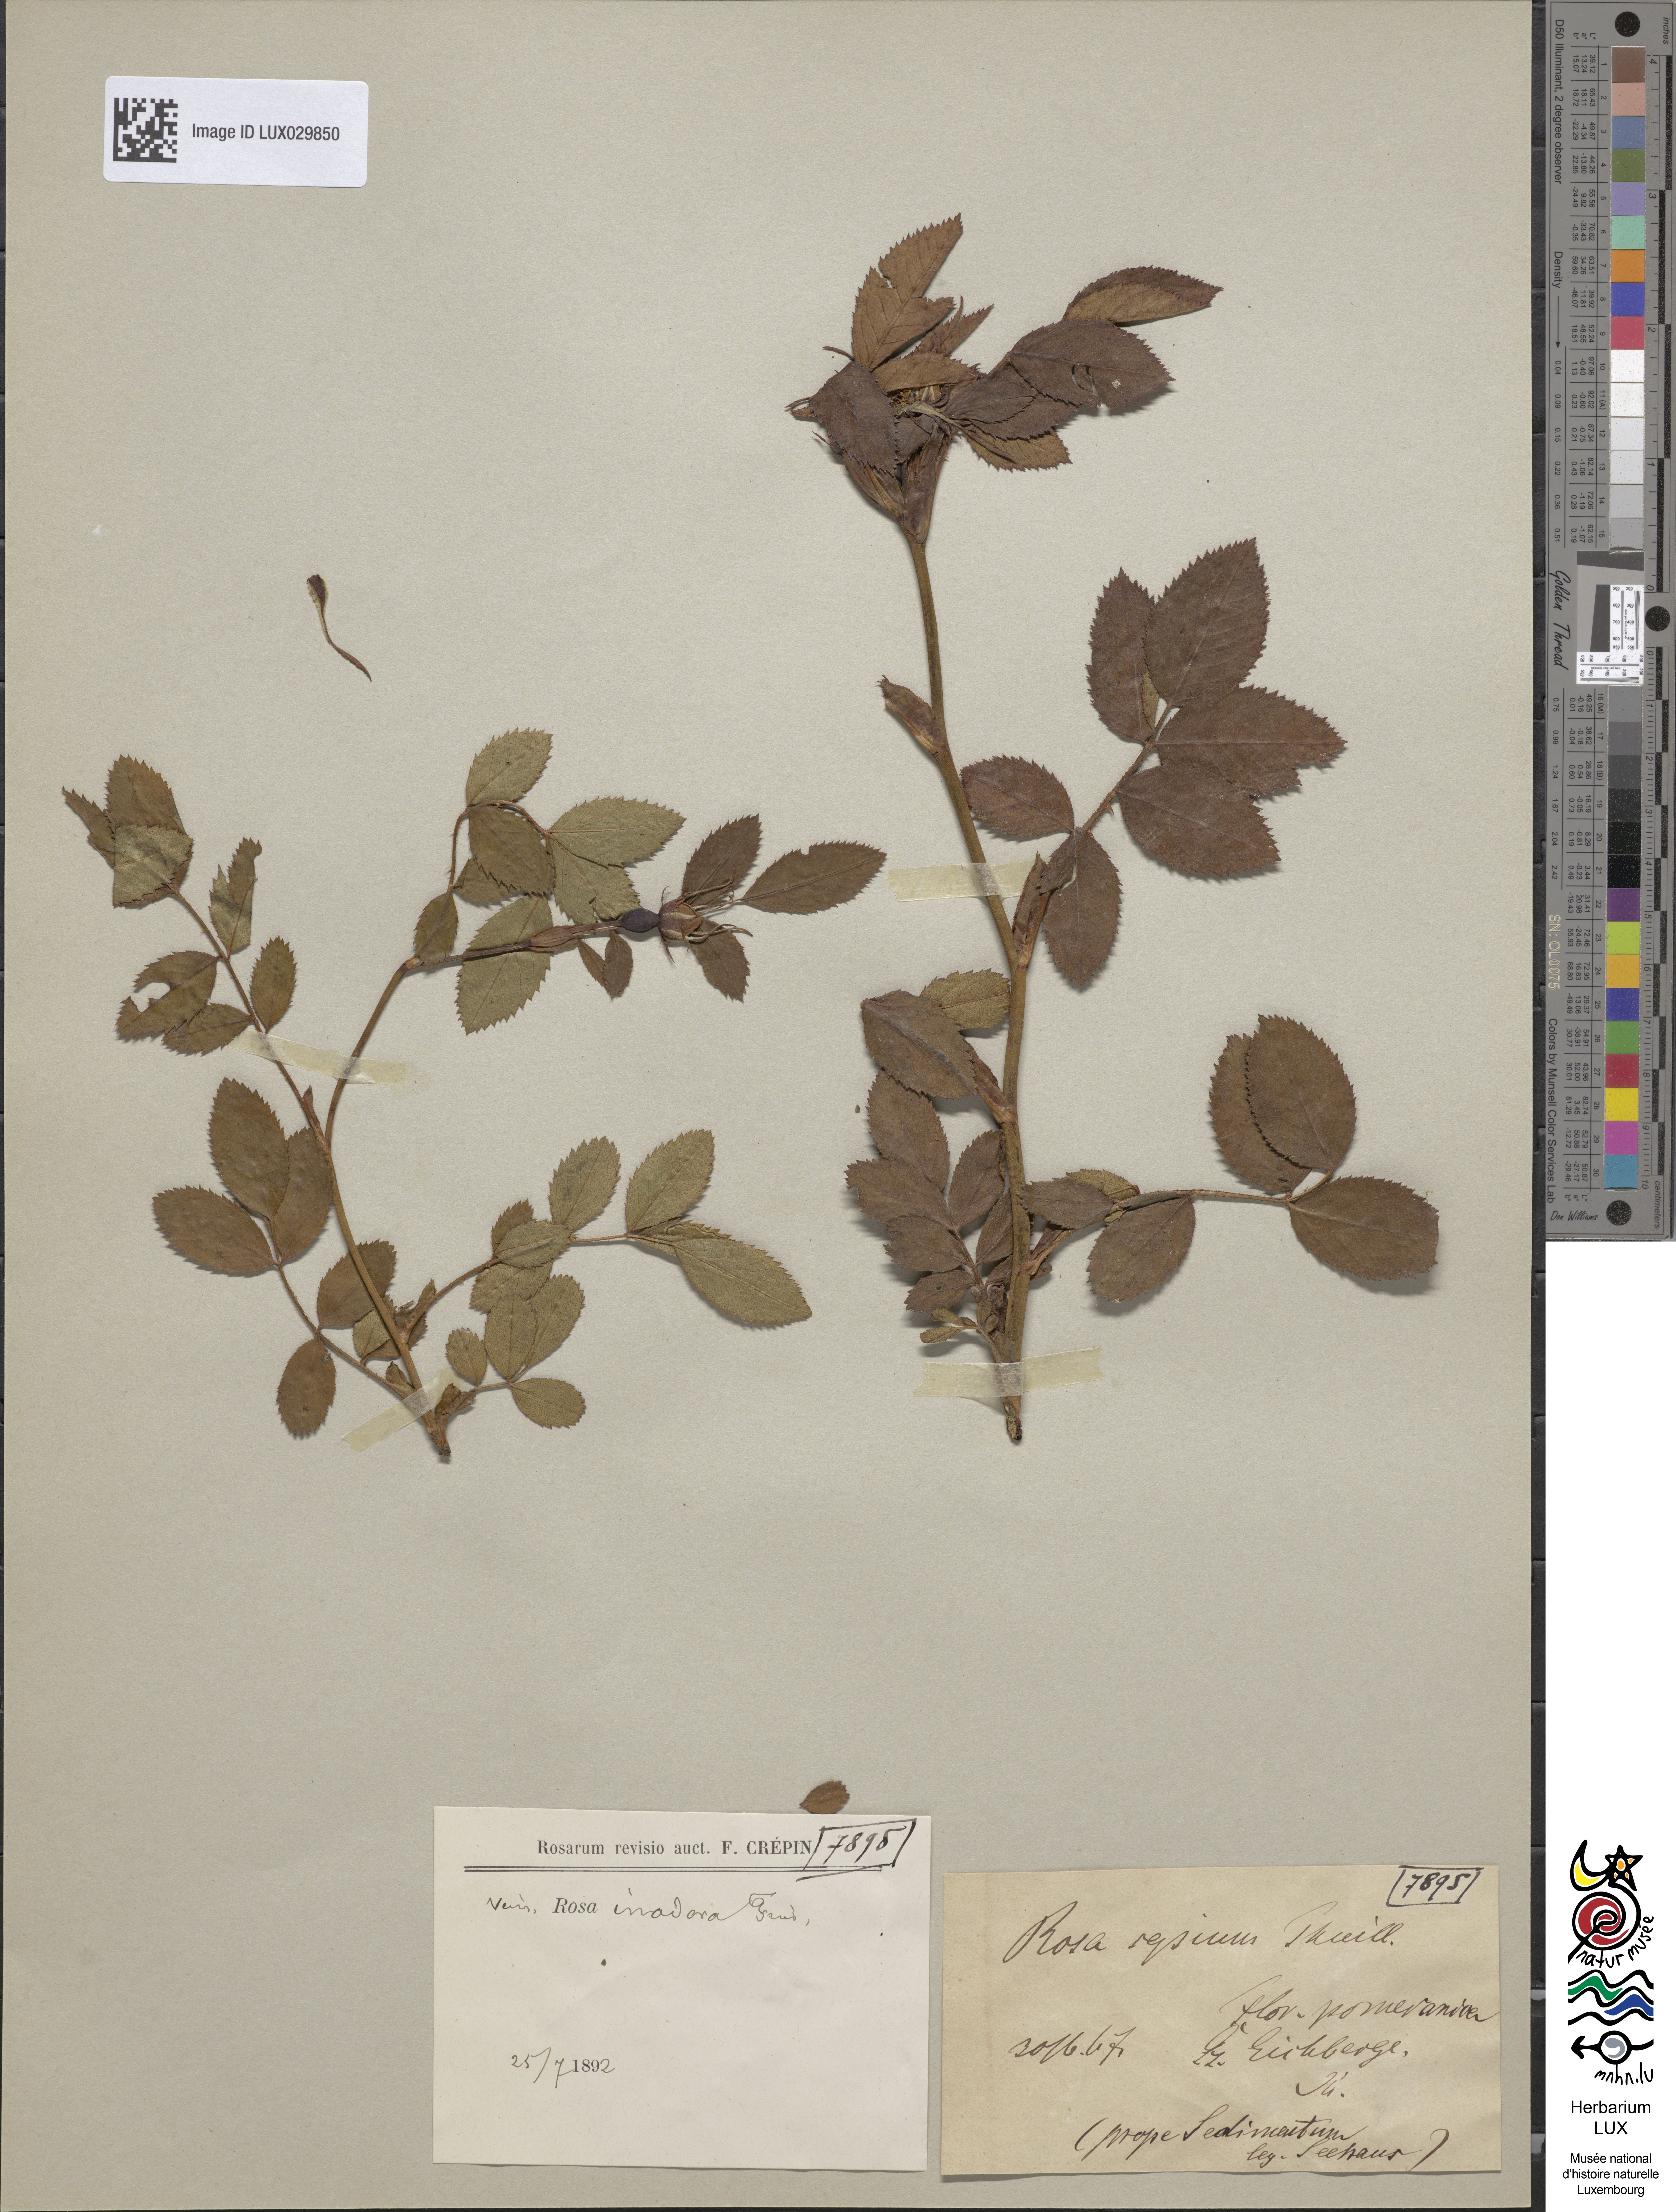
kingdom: Plantae
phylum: Tracheophyta
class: Magnoliopsida
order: Rosales
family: Rosaceae
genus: Rosa
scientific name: Rosa inodora
